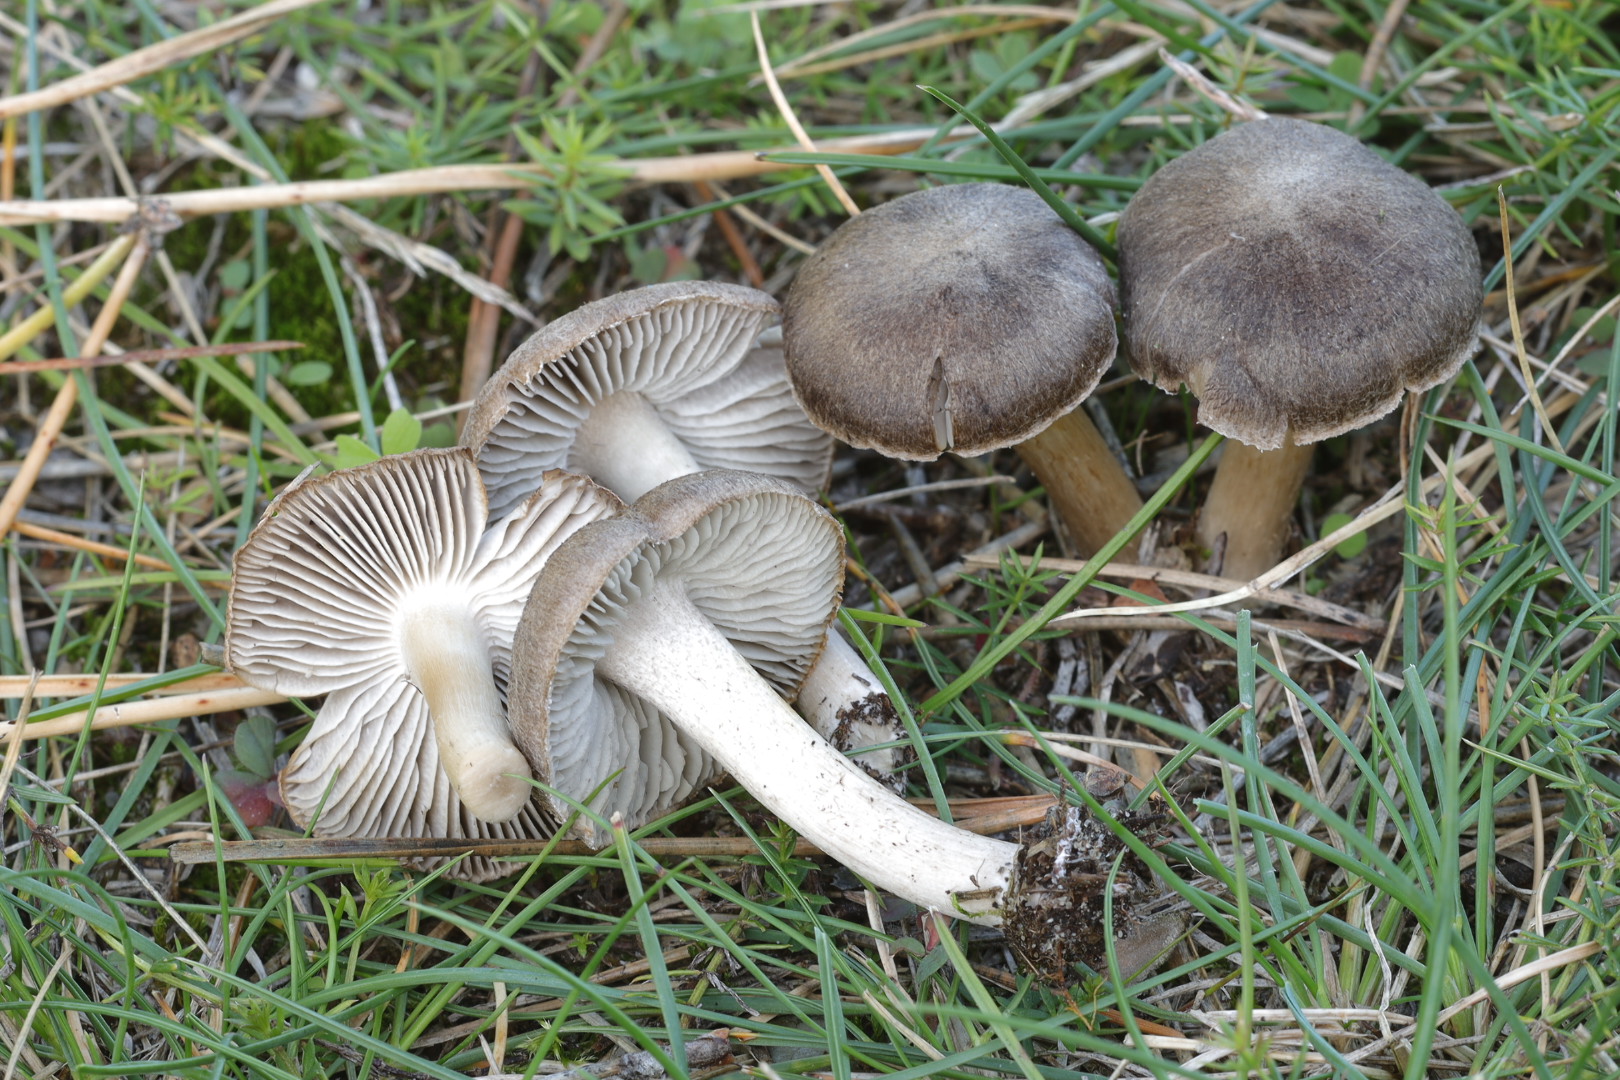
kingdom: Fungi
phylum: Basidiomycota
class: Agaricomycetes
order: Agaricales
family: Tricholomataceae
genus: Tricholoma
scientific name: Tricholoma terreum
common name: jordfarvet ridderhat
